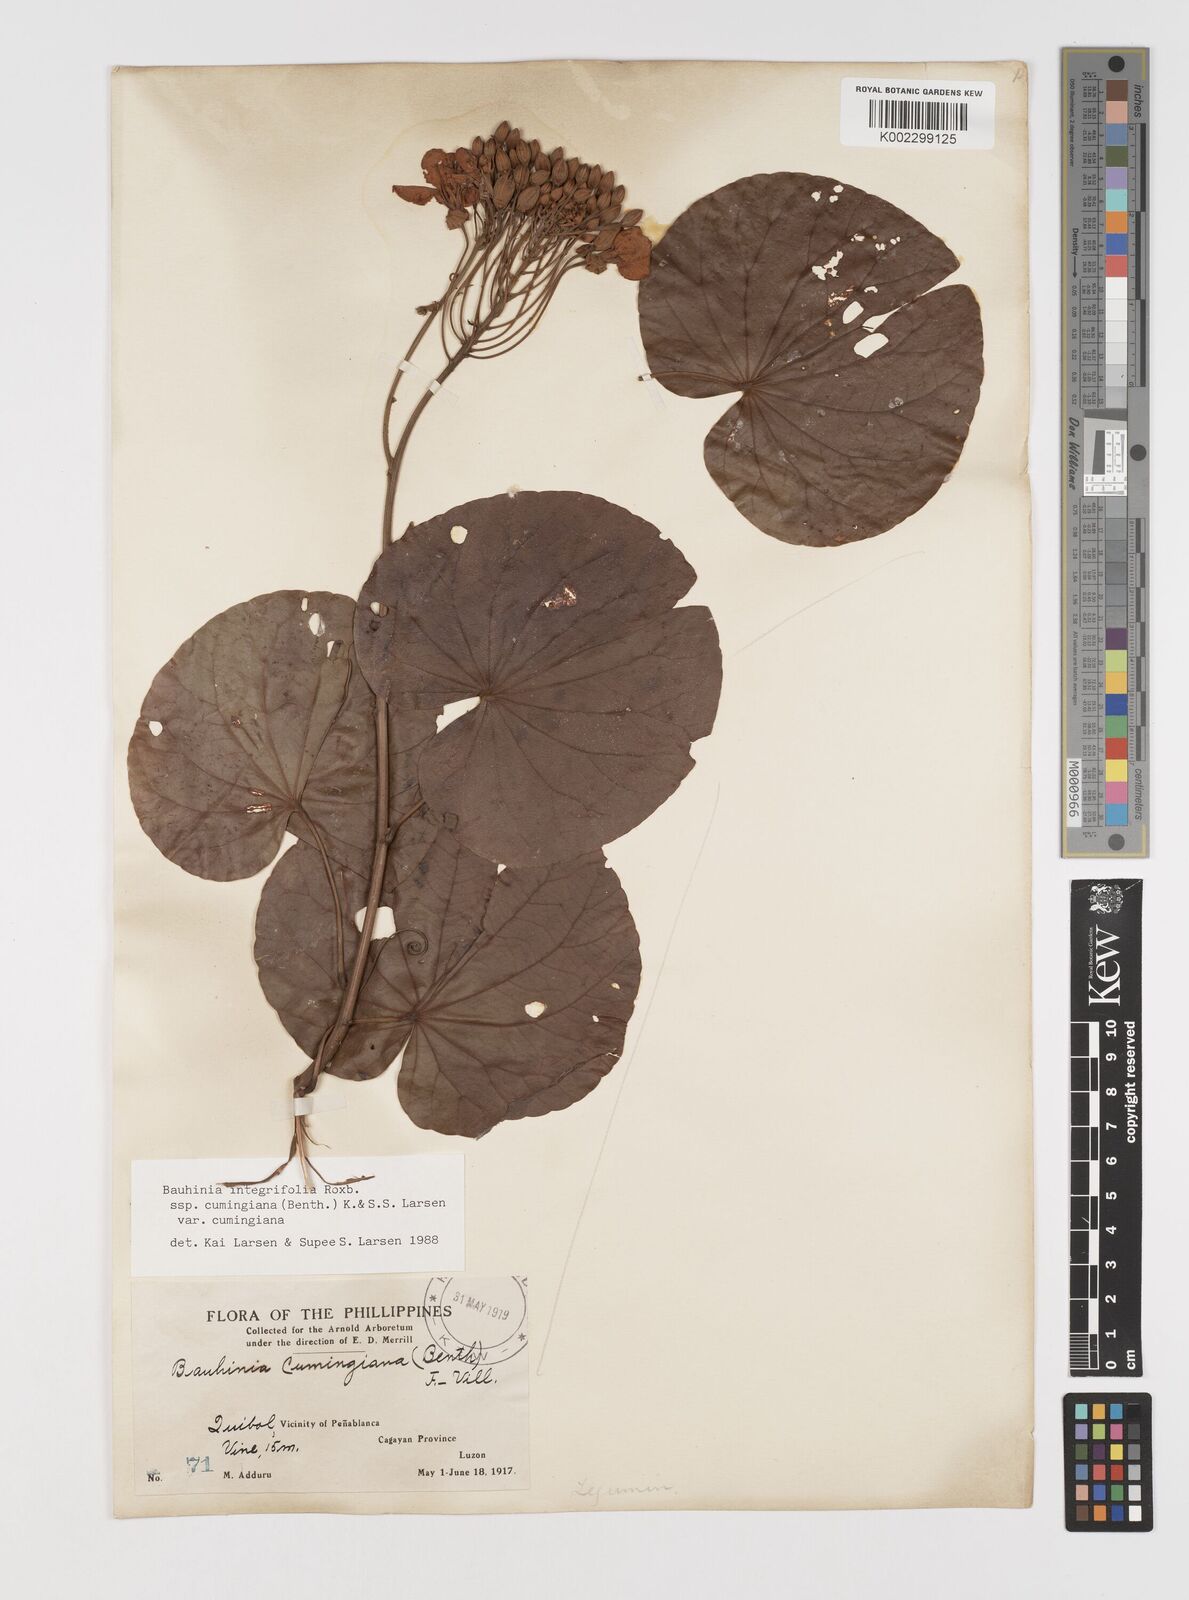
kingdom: Plantae
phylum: Tracheophyta
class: Magnoliopsida
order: Fabales
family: Fabaceae
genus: Phanera
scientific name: Phanera integrifolia
